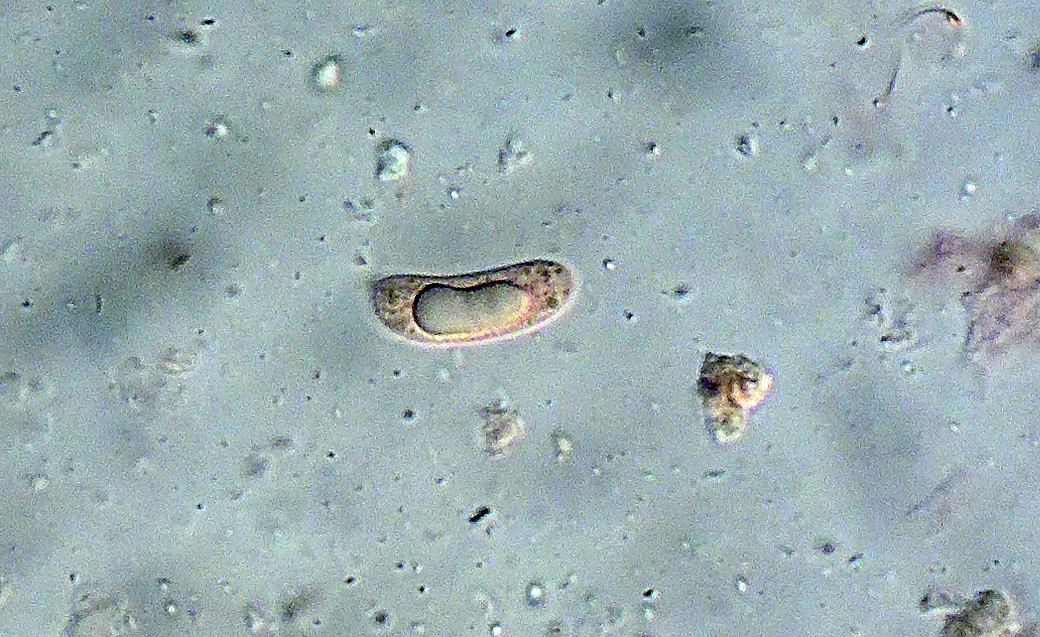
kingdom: Fungi
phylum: Basidiomycota
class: Agaricomycetes
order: Polyporales
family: Meruliaceae
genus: Mycoacia
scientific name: Mycoacia livida
